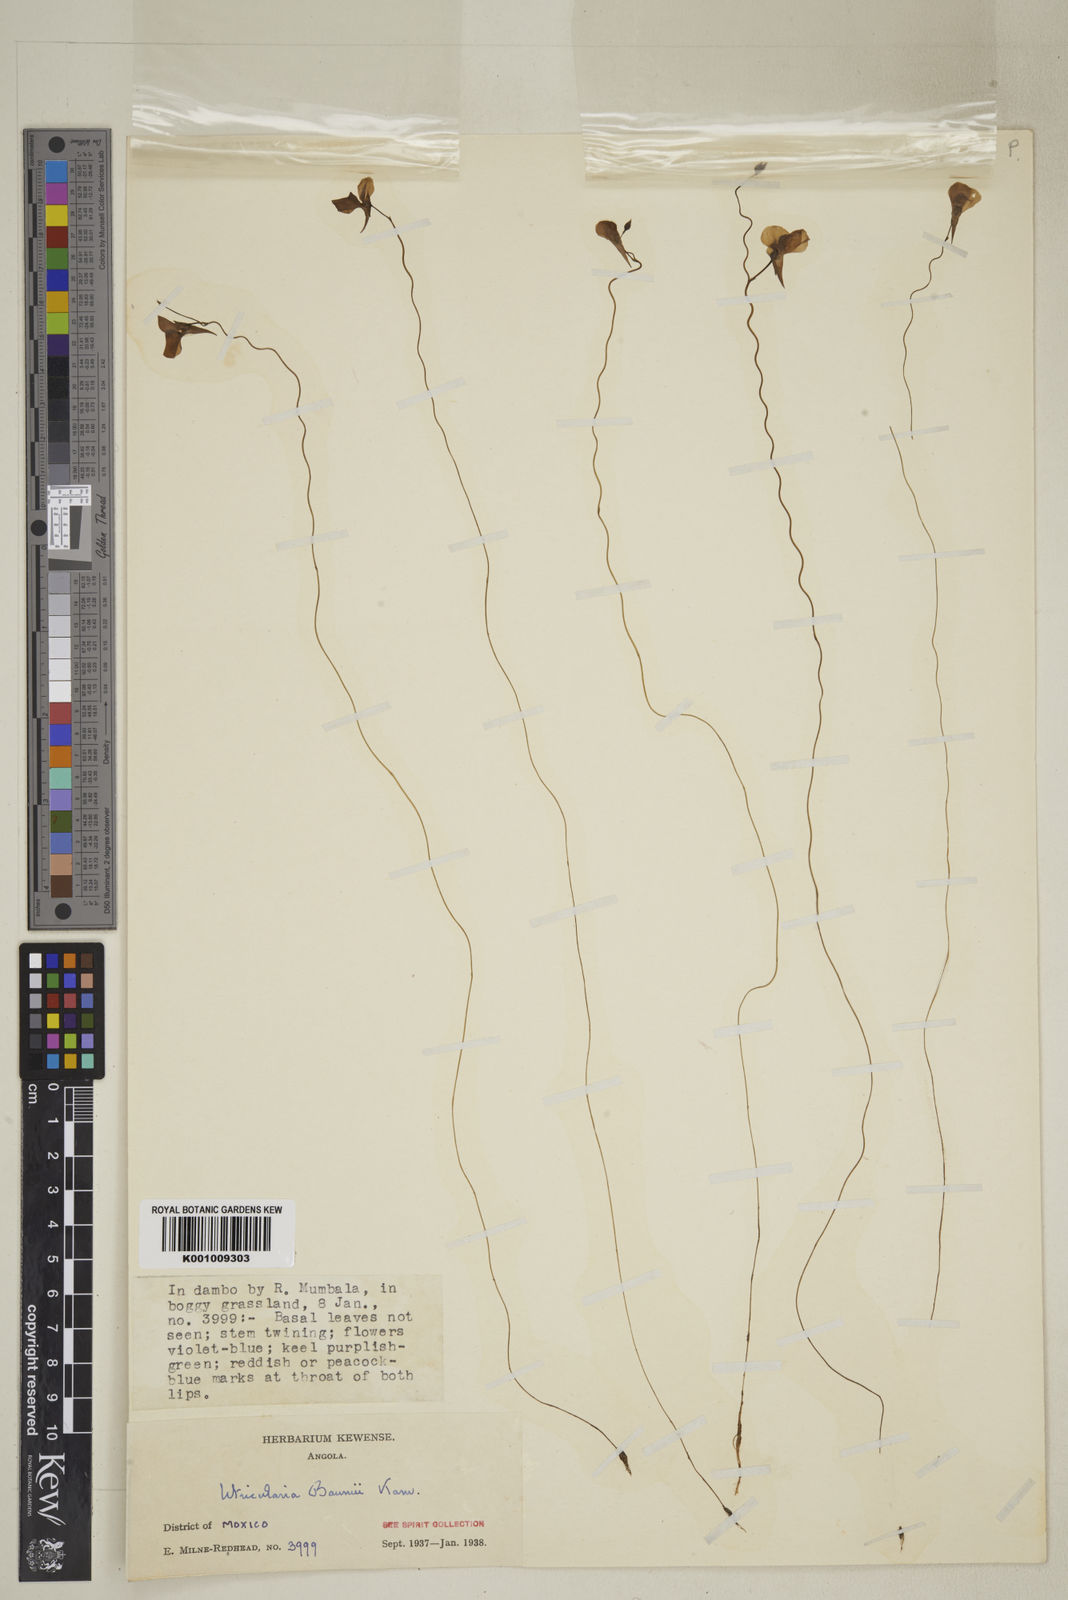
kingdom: Plantae
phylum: Tracheophyta
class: Magnoliopsida
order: Lamiales
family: Lentibulariaceae
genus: Utricularia
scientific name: Utricularia spiralis
